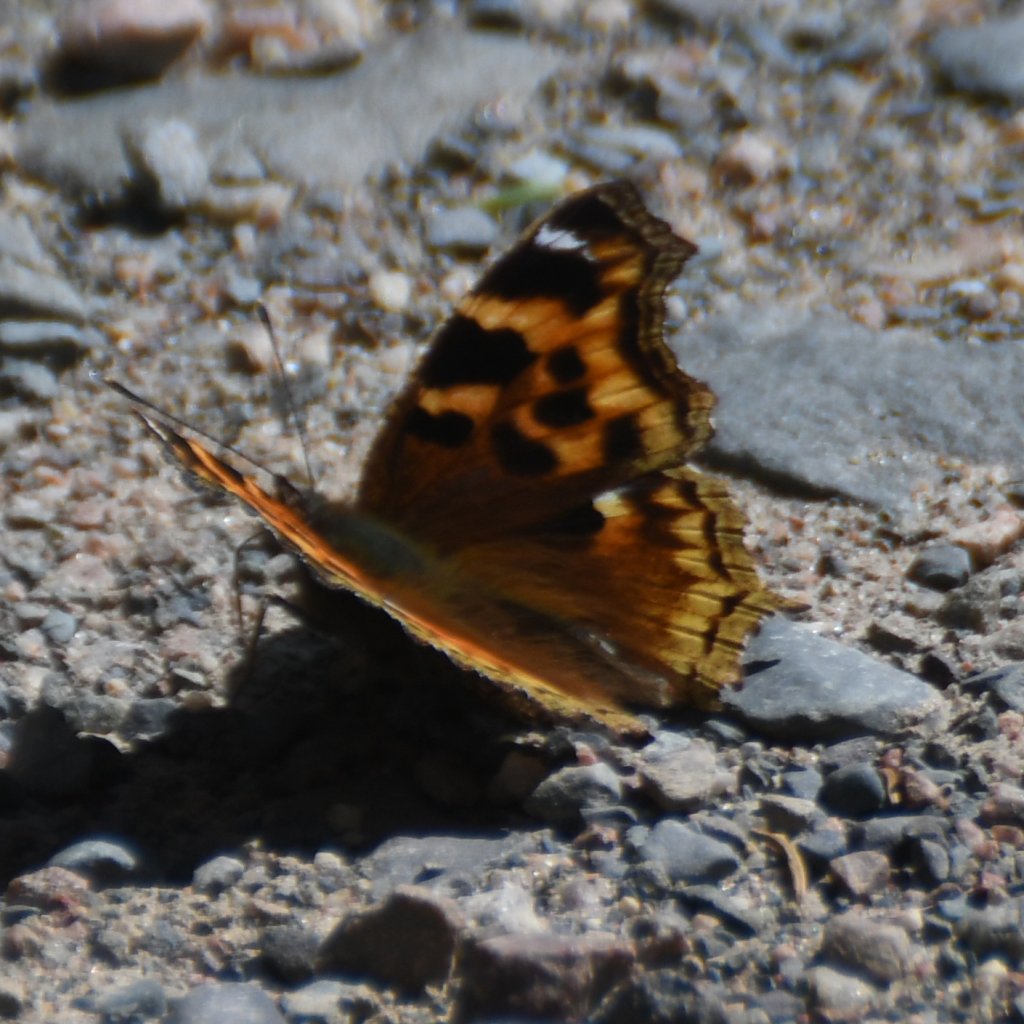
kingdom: Animalia
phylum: Arthropoda
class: Insecta
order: Lepidoptera
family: Nymphalidae
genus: Polygonia
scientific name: Polygonia vaualbum
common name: Compton Tortoiseshell
